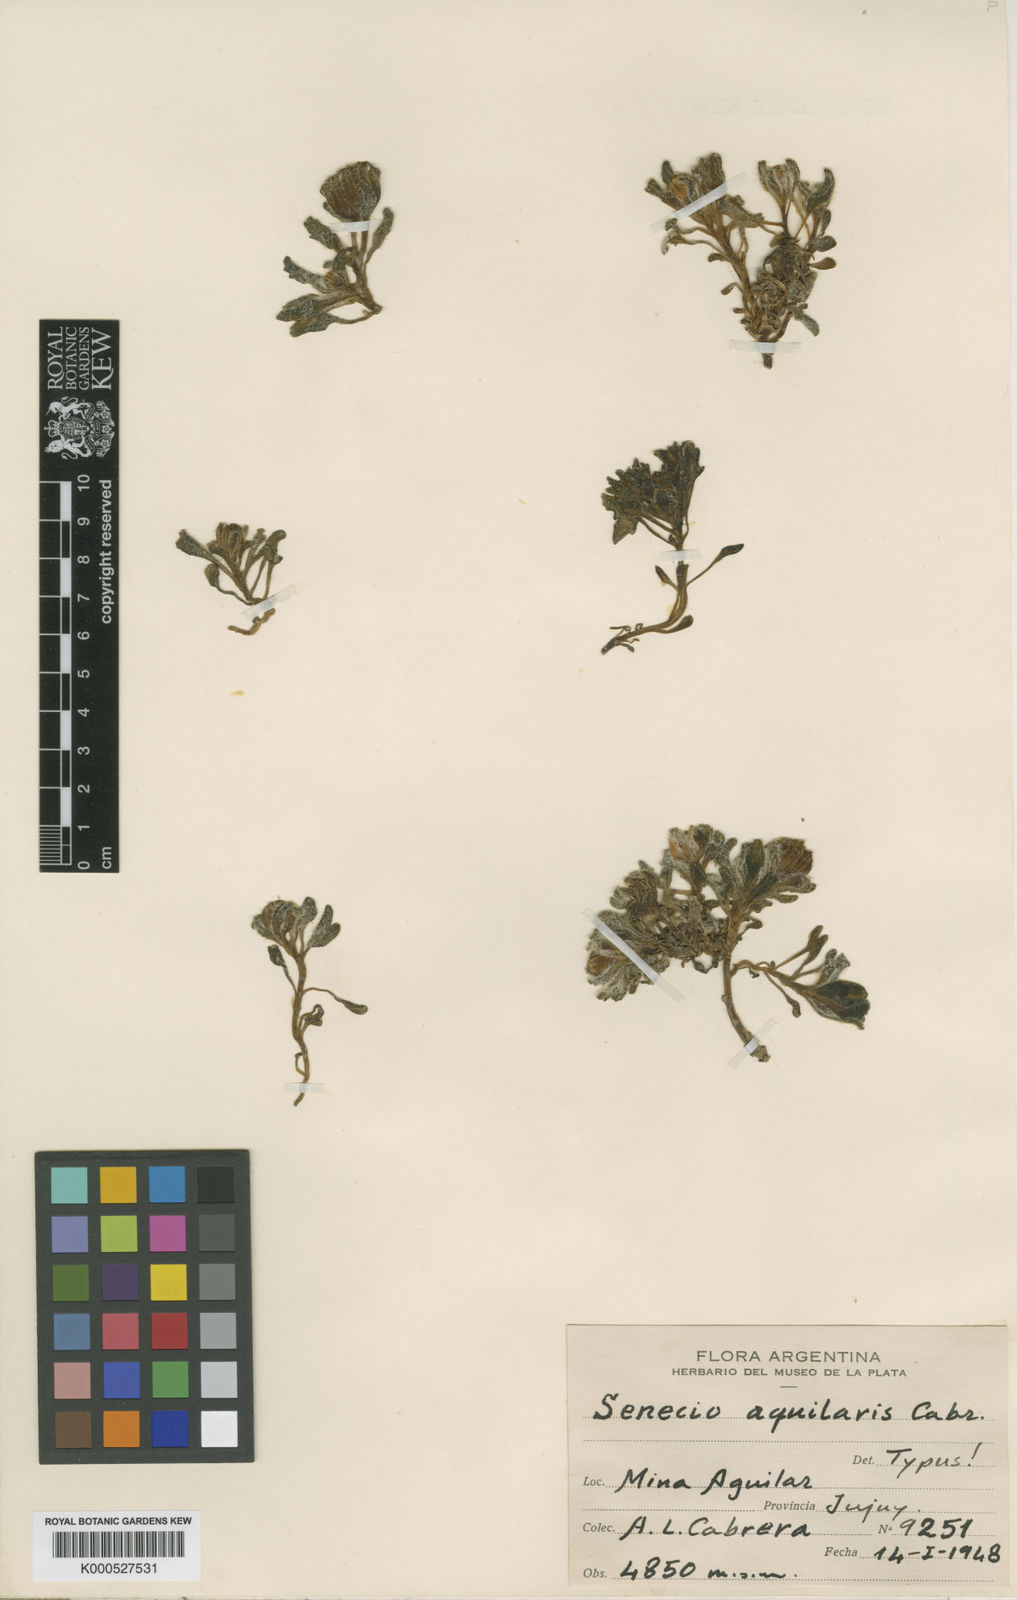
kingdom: Plantae
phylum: Tracheophyta
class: Magnoliopsida
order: Asterales
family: Asteraceae
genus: Senecio
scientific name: Senecio aquilaris
